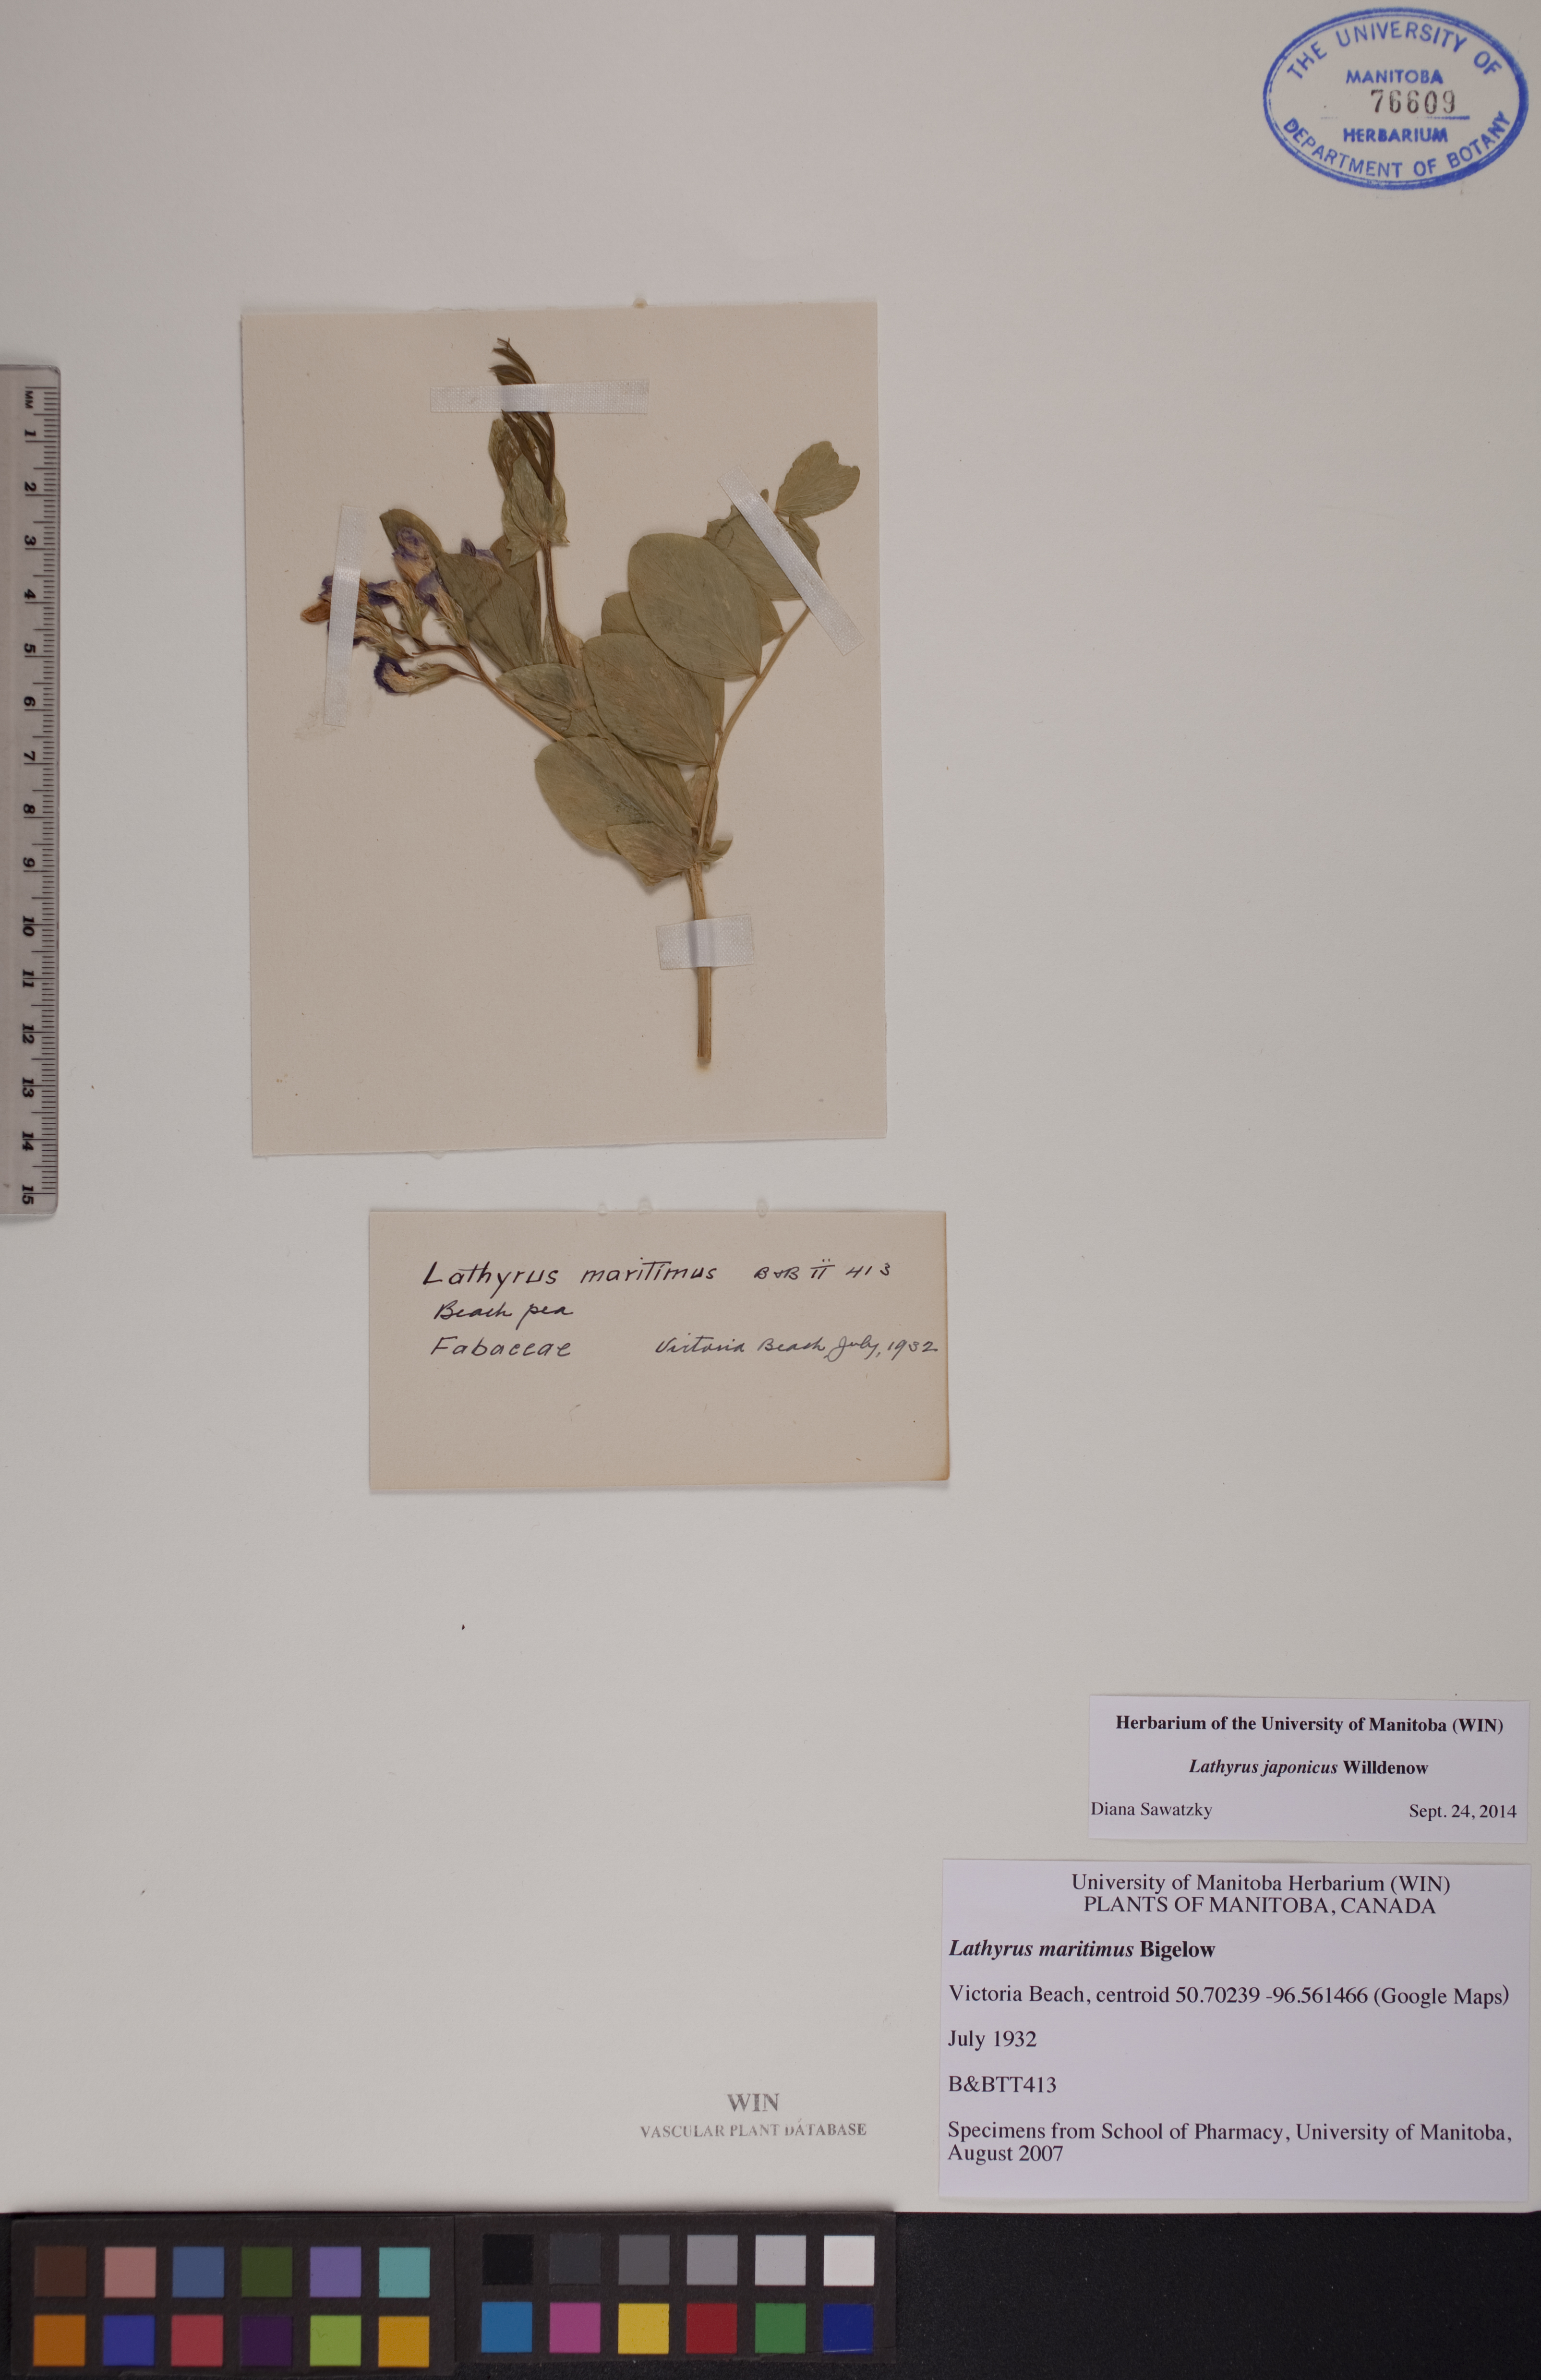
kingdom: Plantae
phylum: Tracheophyta
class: Magnoliopsida
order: Fabales
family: Fabaceae
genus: Lathyrus
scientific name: Lathyrus japonicus
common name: Sea pea
